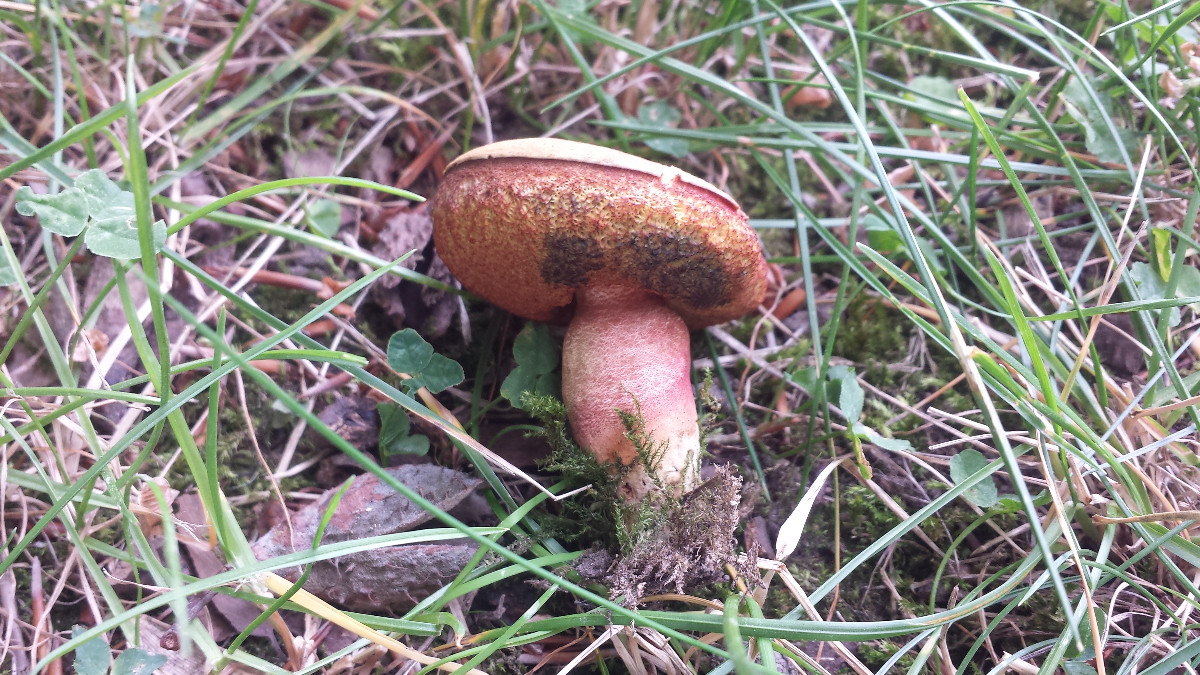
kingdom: Fungi
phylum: Basidiomycota
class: Agaricomycetes
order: Boletales
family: Boletaceae
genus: Neoboletus
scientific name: Neoboletus erythropus
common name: punktstokket indigorørhat
